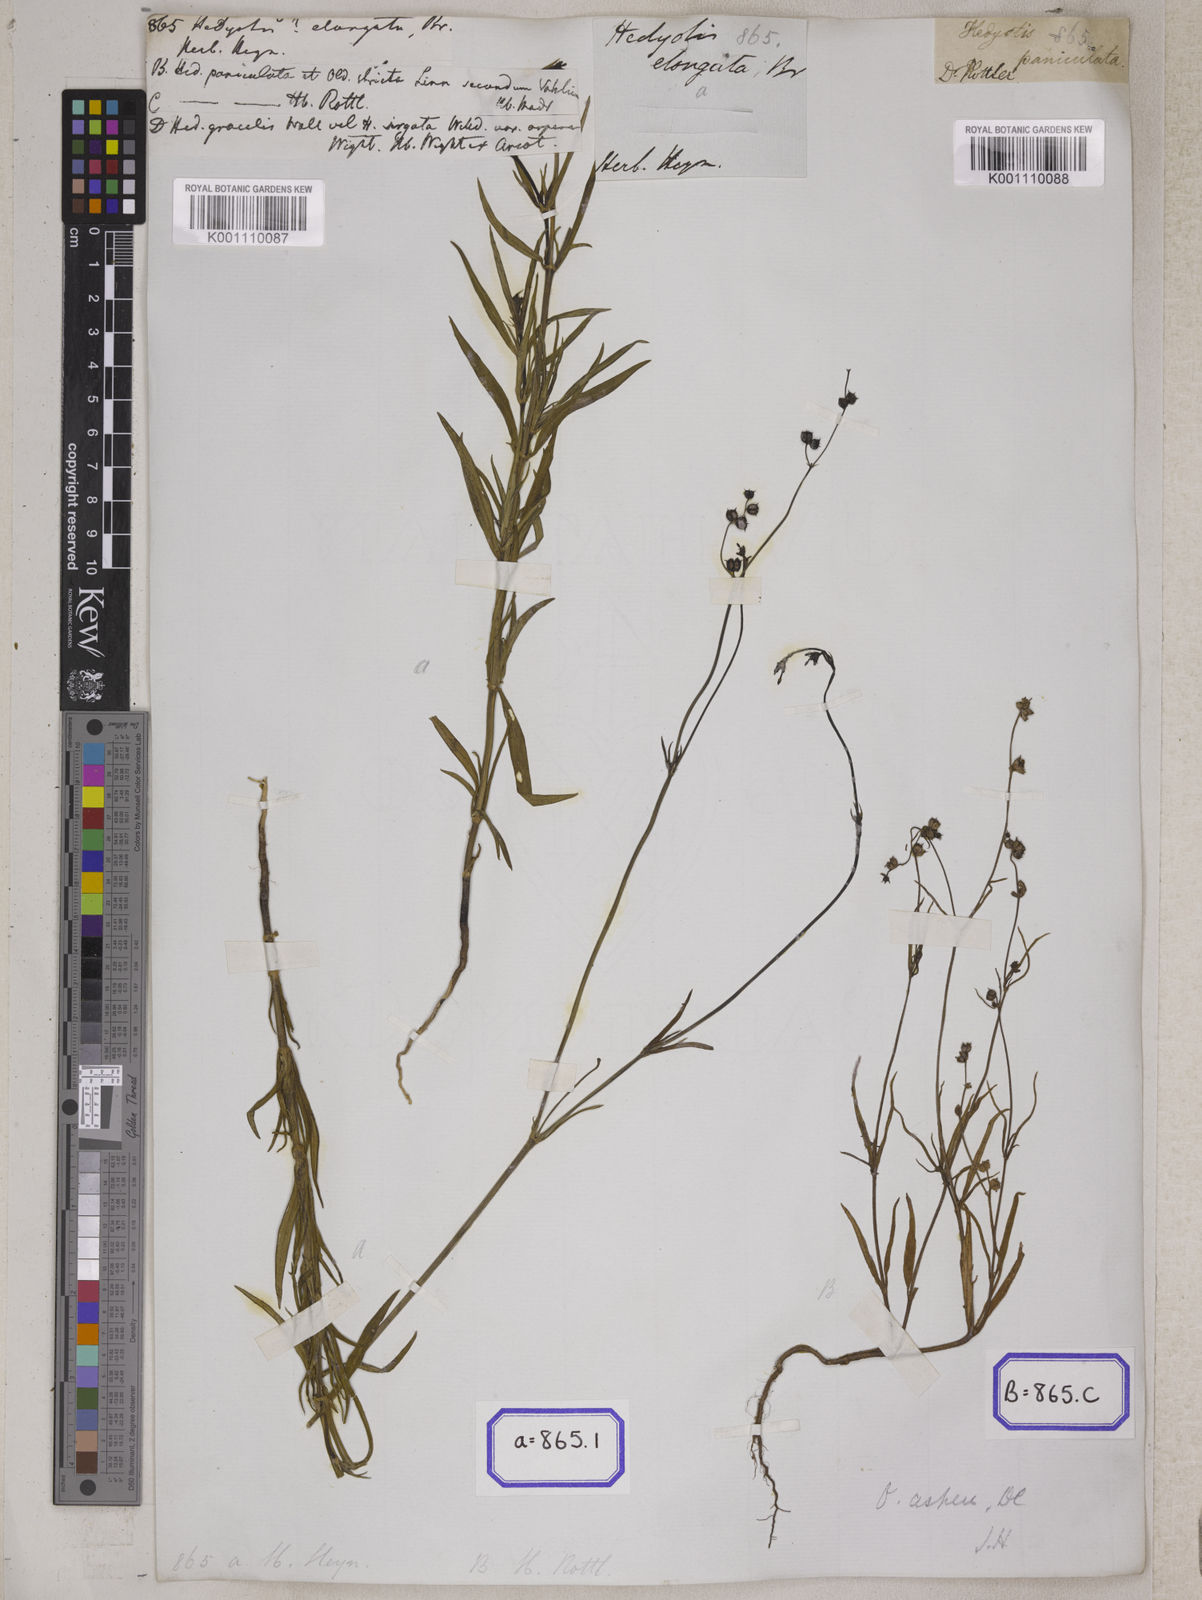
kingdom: Plantae
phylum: Tracheophyta
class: Magnoliopsida
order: Gentianales
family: Rubiaceae
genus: Hedyotis
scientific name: Hedyotis
